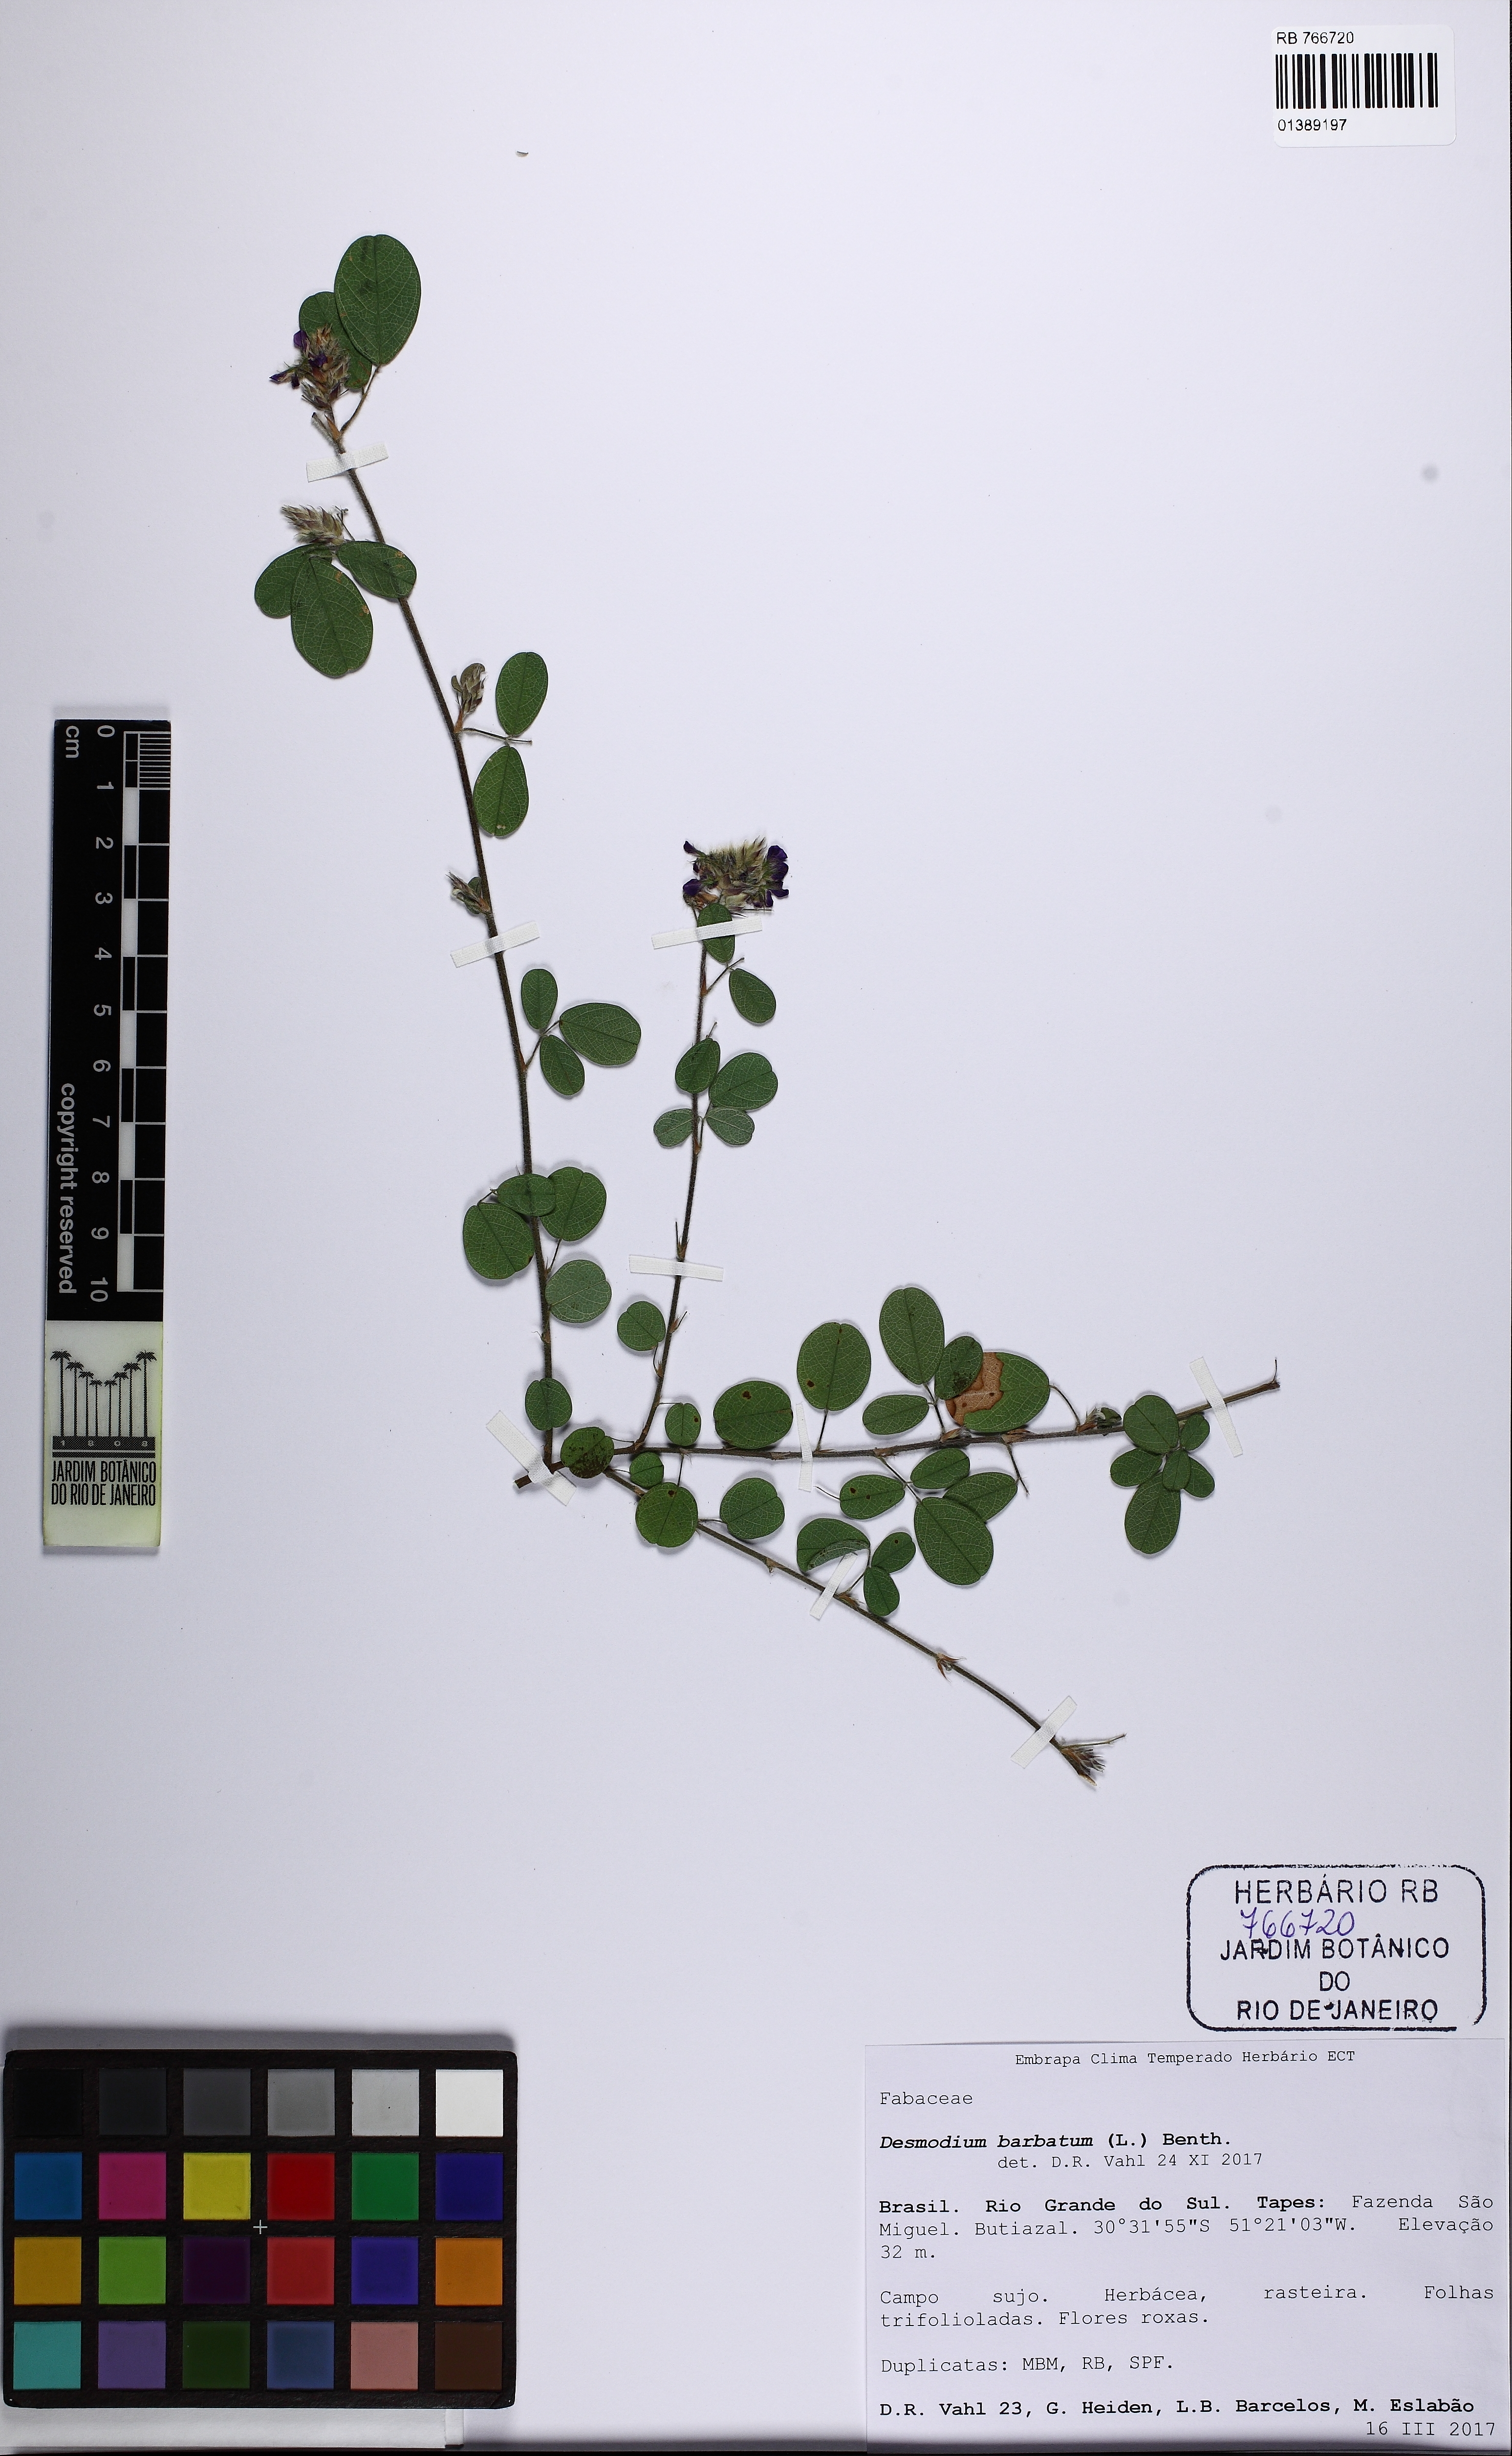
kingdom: Plantae
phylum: Tracheophyta
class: Magnoliopsida
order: Fabales
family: Fabaceae
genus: Grona
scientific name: Grona barbata
